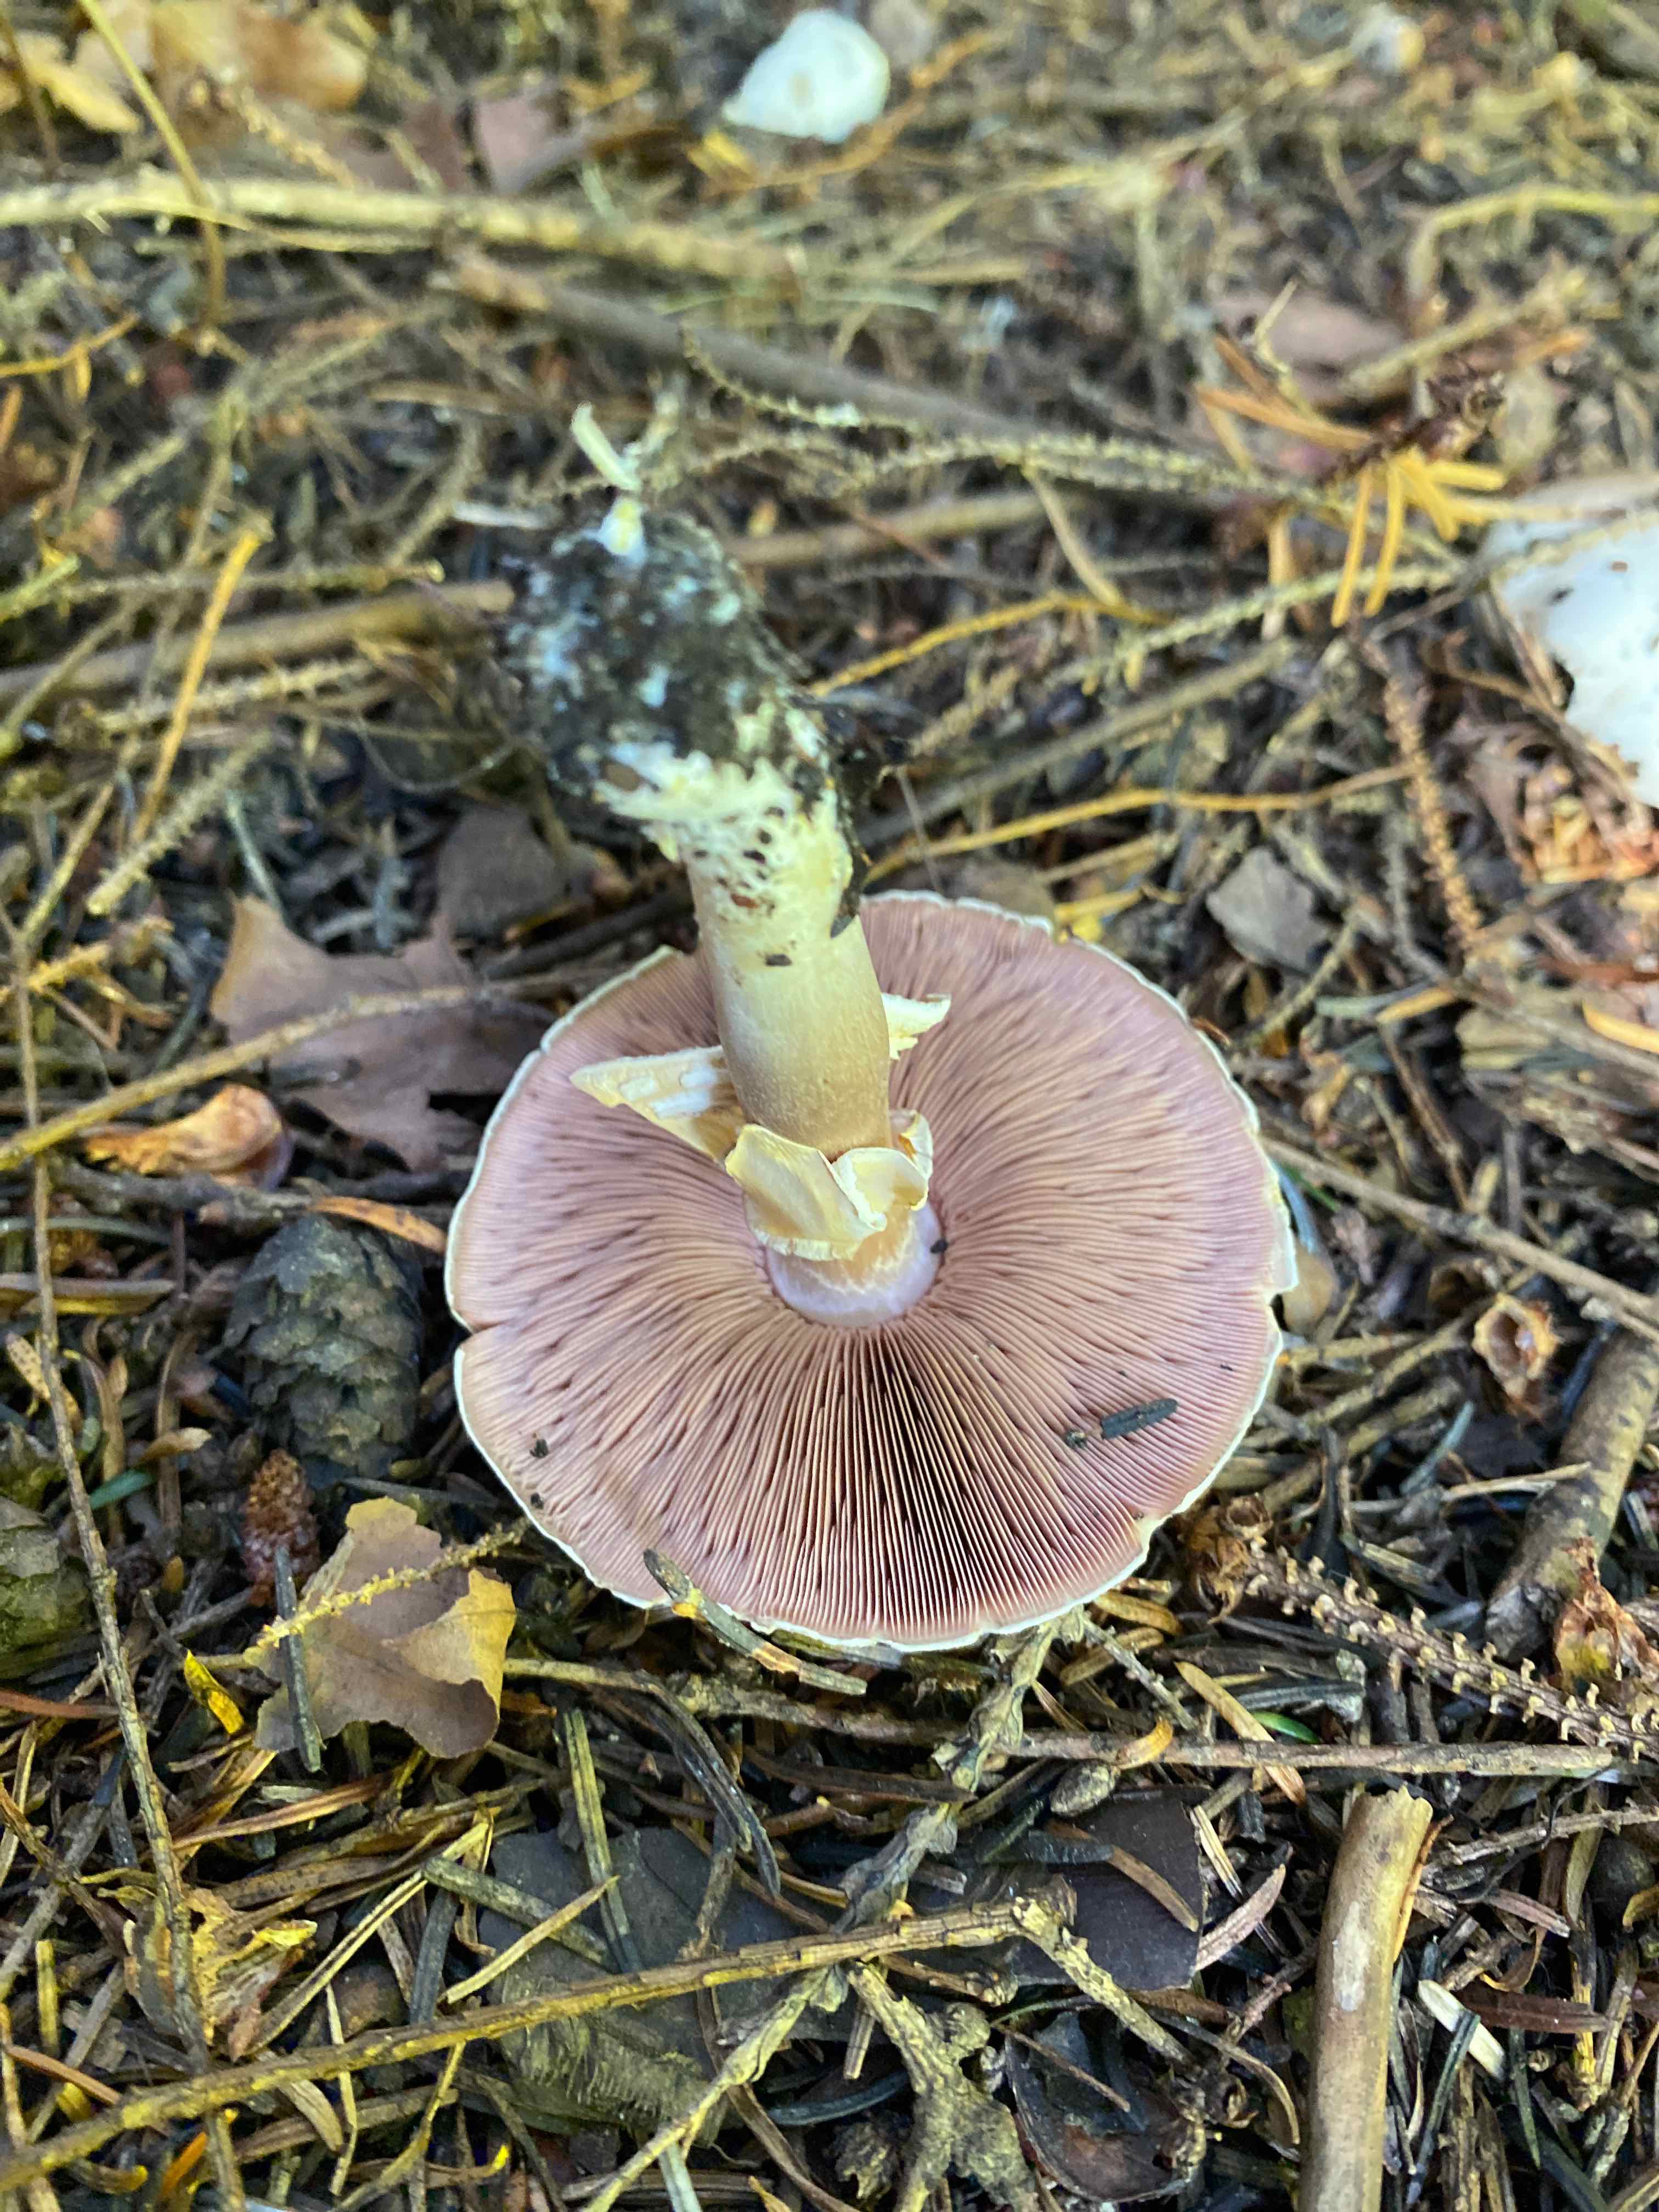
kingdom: Fungi
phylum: Basidiomycota
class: Agaricomycetes
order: Agaricales
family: Agaricaceae
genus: Agaricus
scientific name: Agaricus
